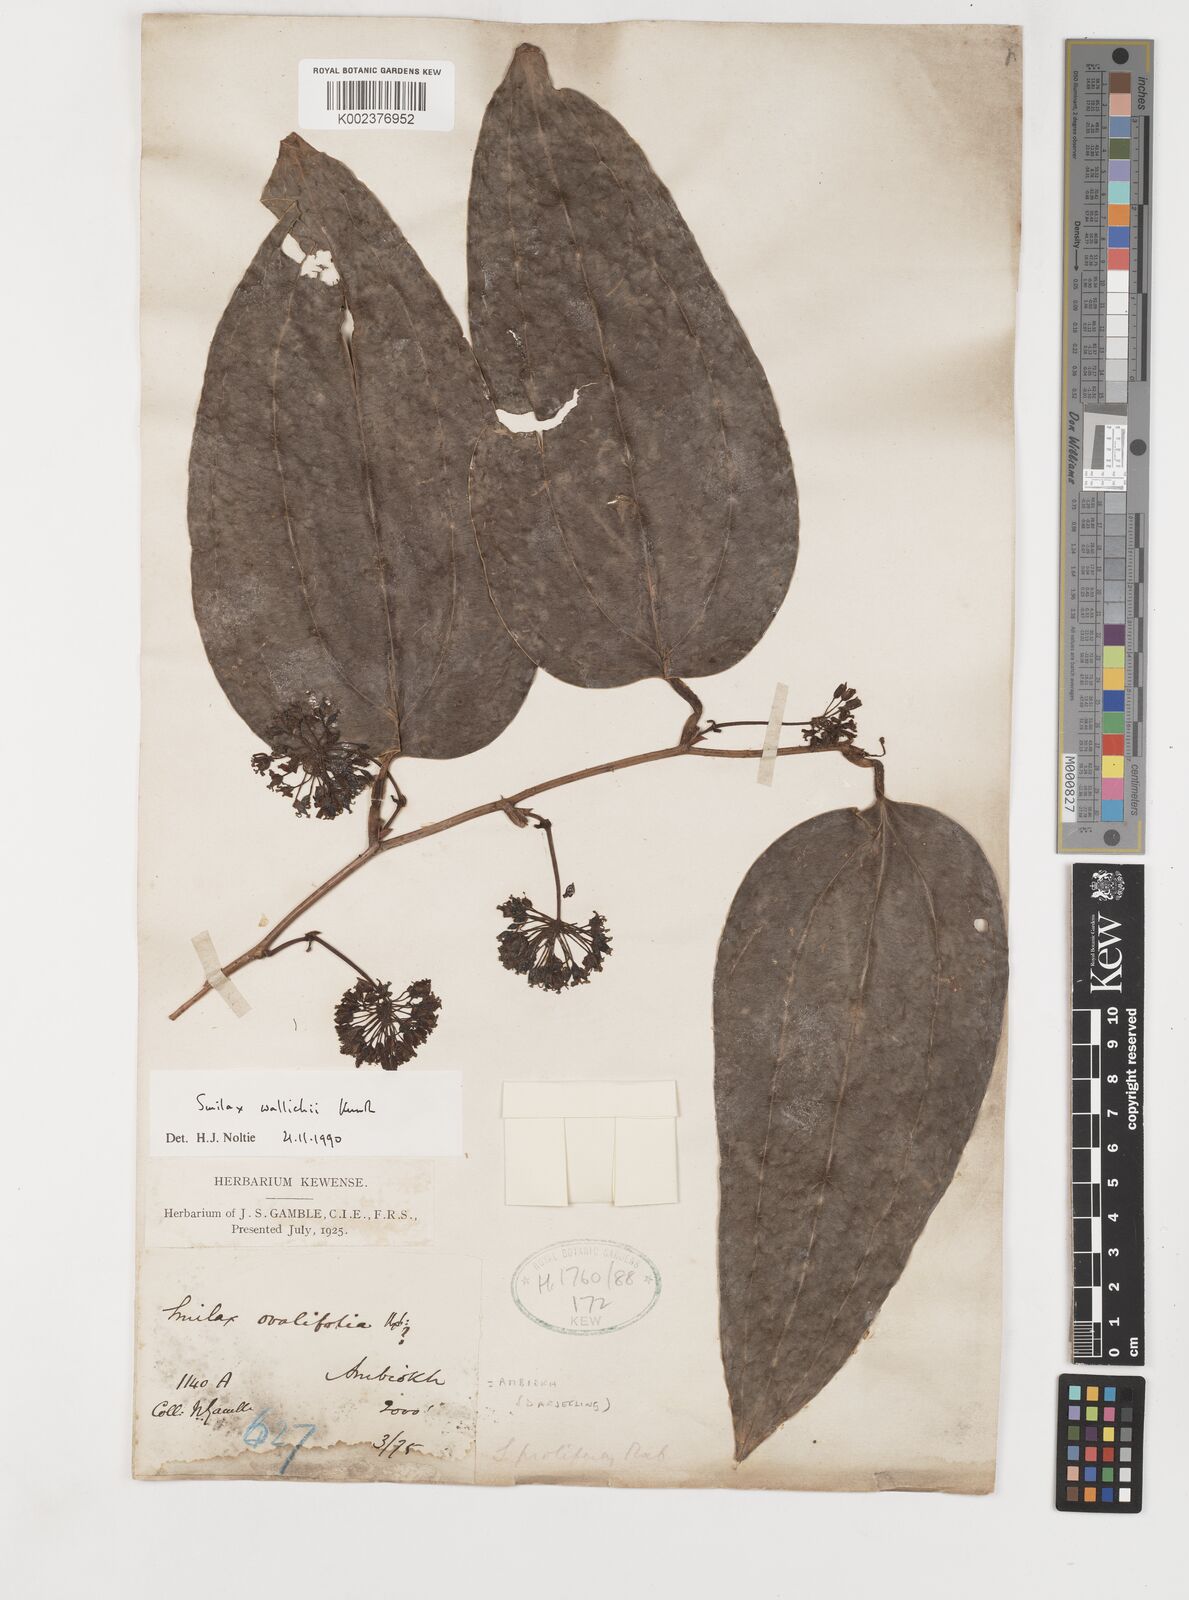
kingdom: Plantae
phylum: Tracheophyta
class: Liliopsida
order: Liliales
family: Smilacaceae
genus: Smilax
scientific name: Smilax wallichii
